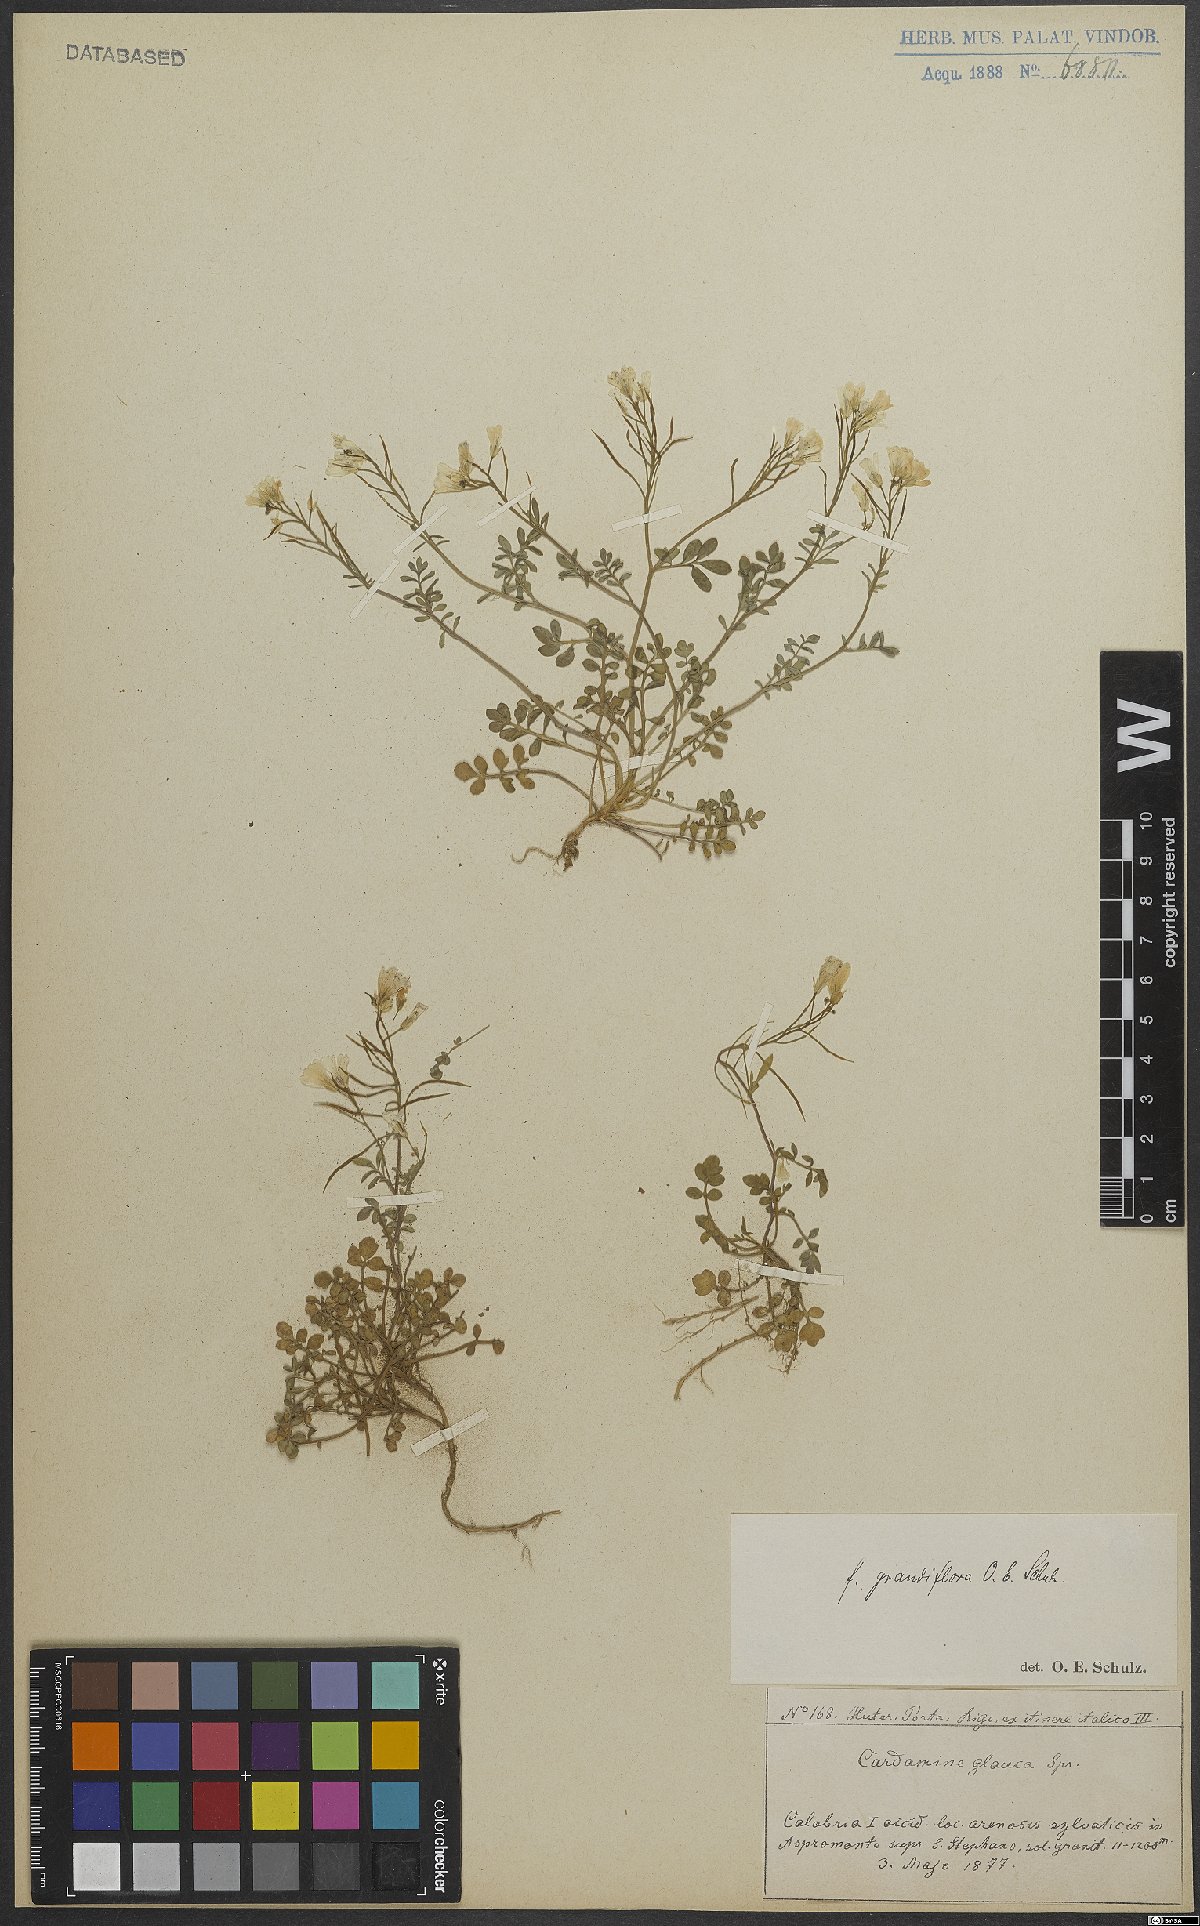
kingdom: Plantae
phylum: Tracheophyta
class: Magnoliopsida
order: Brassicales
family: Brassicaceae
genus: Cardamine
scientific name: Cardamine glauca
